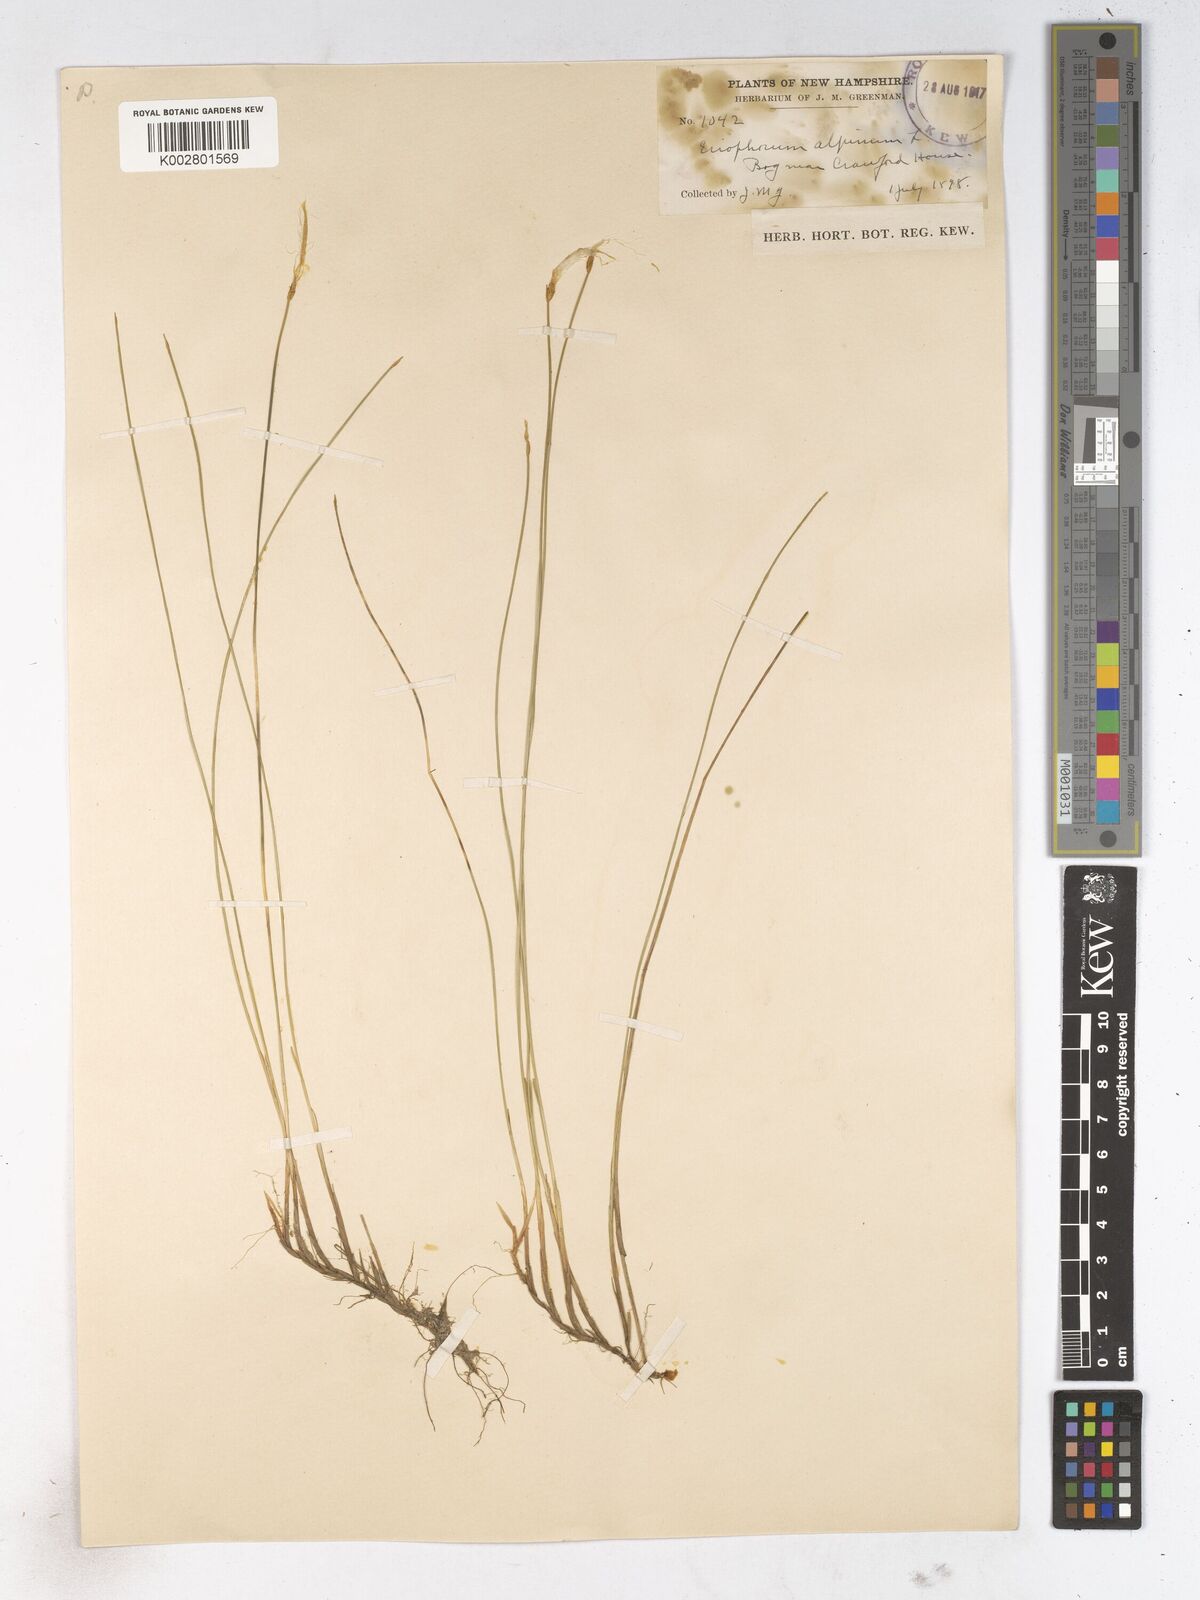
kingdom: Plantae
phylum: Tracheophyta
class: Liliopsida
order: Poales
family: Cyperaceae
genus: Trichophorum
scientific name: Trichophorum alpinum
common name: Alpine bulrush
